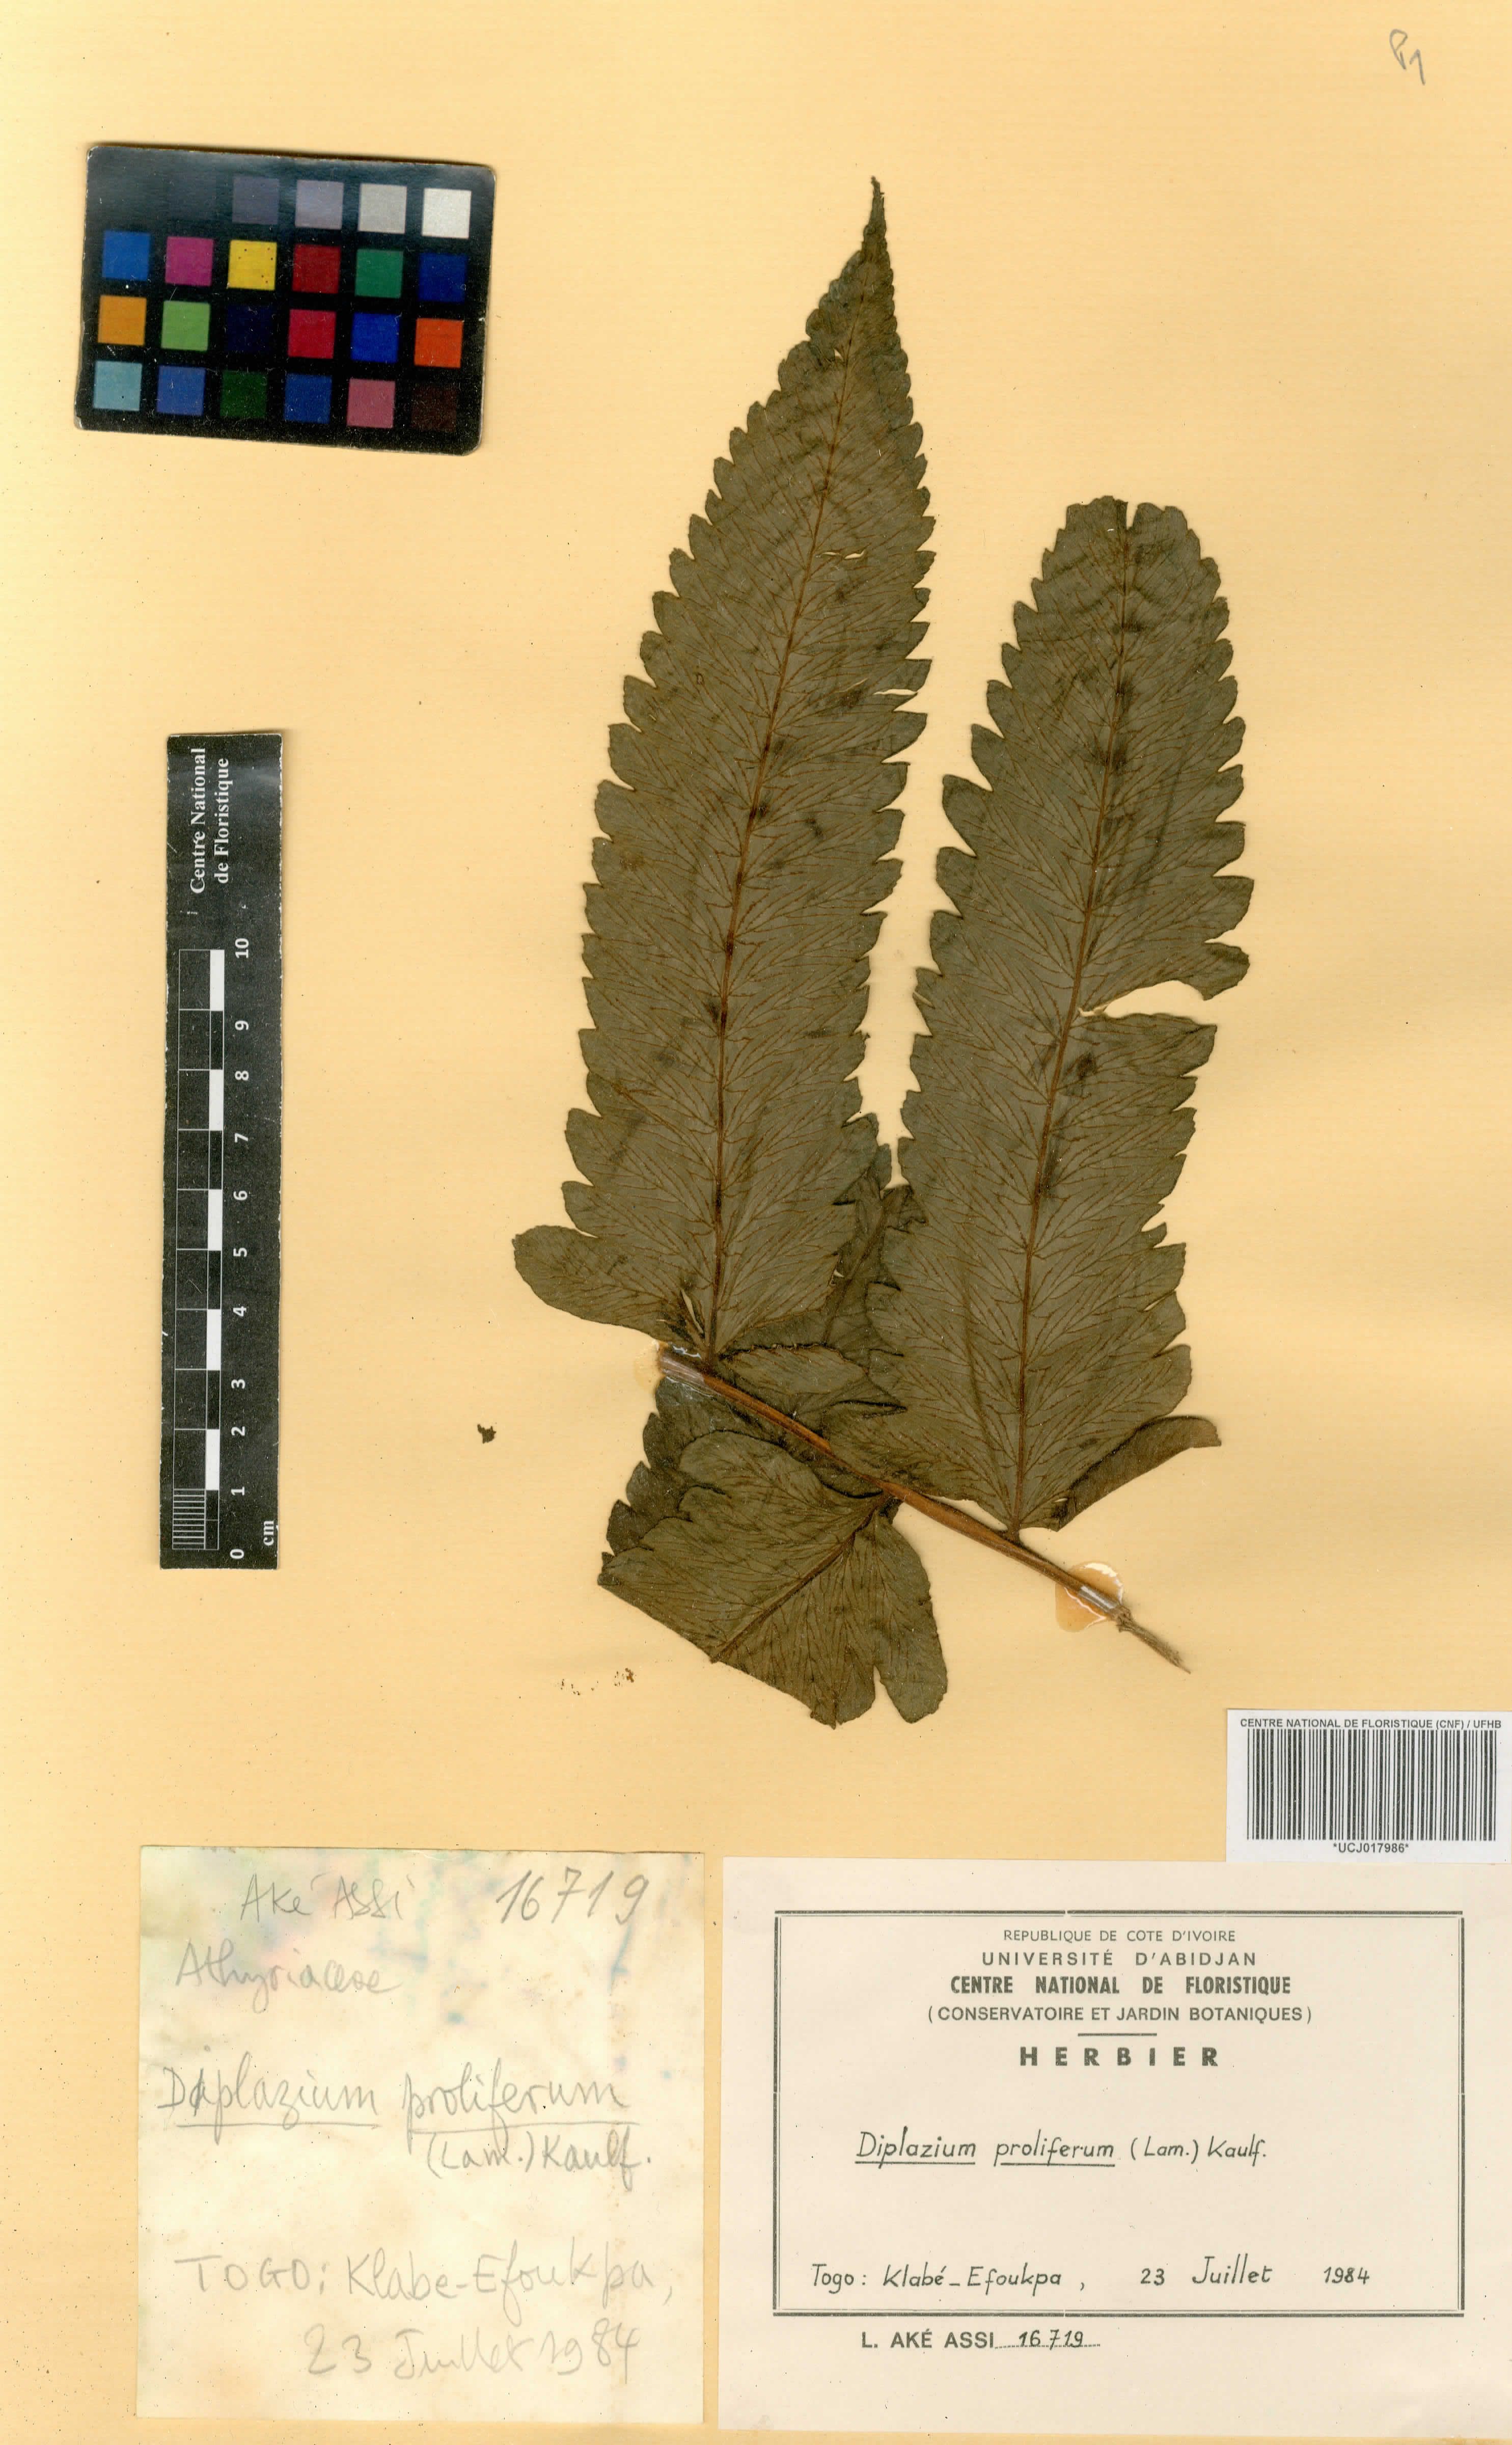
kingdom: Plantae
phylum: Tracheophyta
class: Polypodiopsida
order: Polypodiales
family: Athyriaceae
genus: Diplazium
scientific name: Diplazium proliferum
